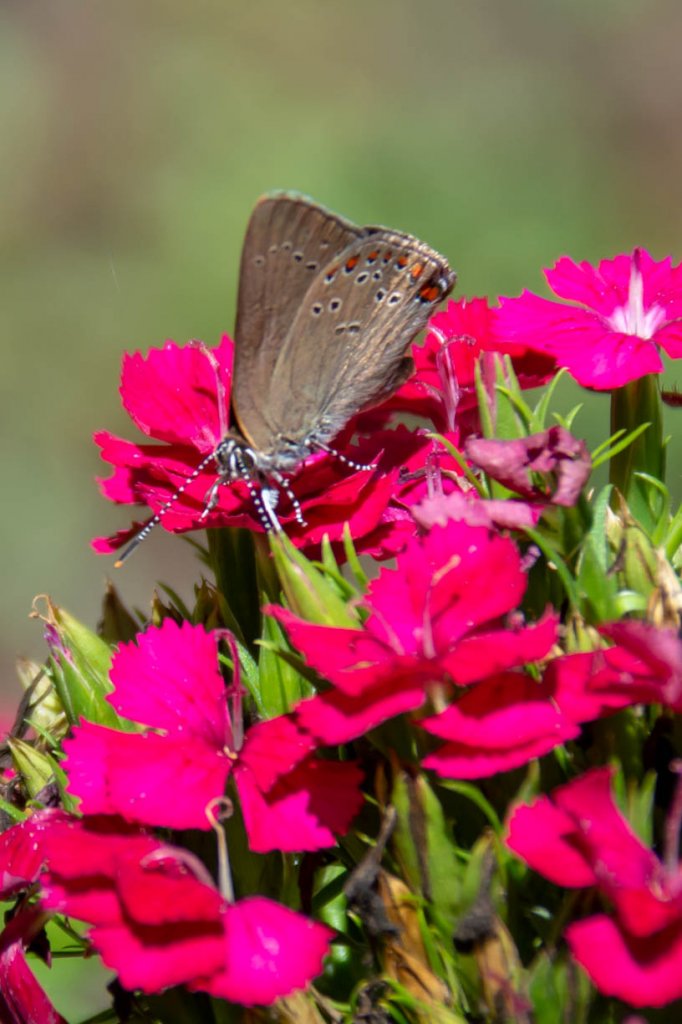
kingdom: Animalia
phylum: Arthropoda
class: Insecta
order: Lepidoptera
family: Lycaenidae
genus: Harkenclenus
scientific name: Harkenclenus titus
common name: Coral Hairstreak
